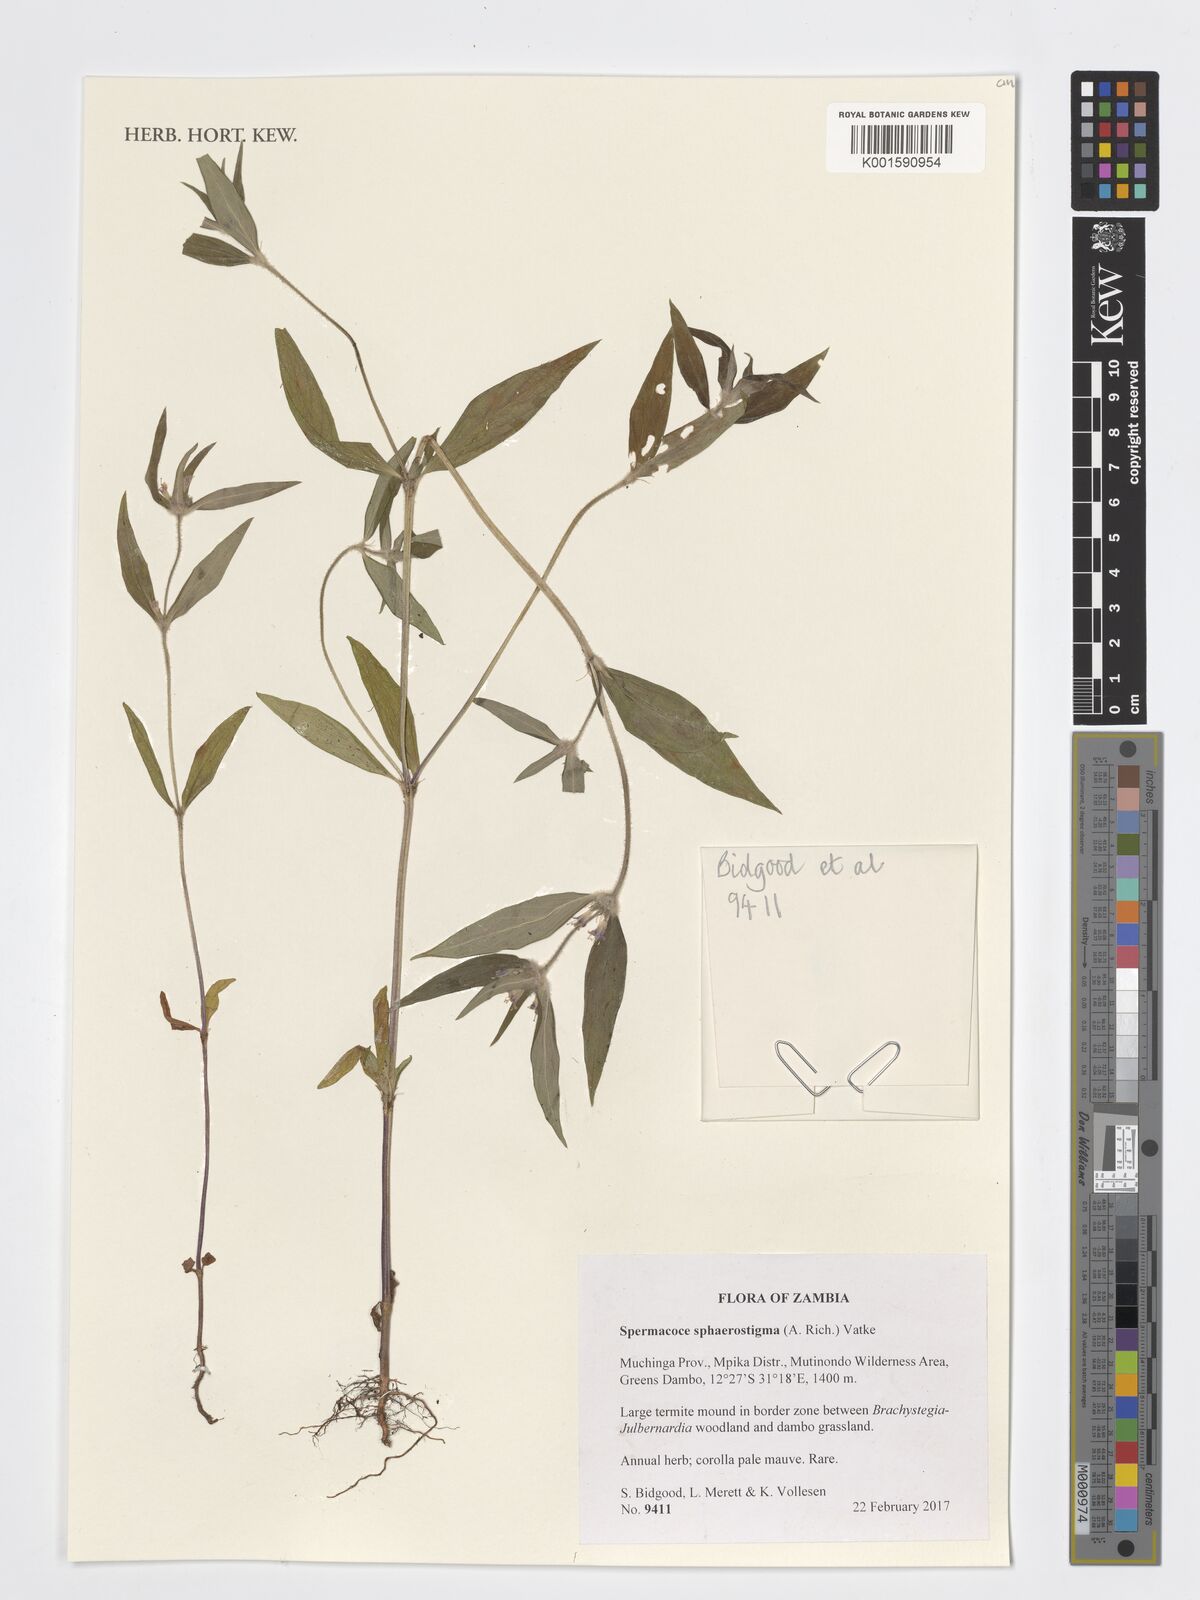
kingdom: Plantae
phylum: Tracheophyta
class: Magnoliopsida
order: Gentianales
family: Rubiaceae
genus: Spermacoce
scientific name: Spermacoce sphaerostigma
